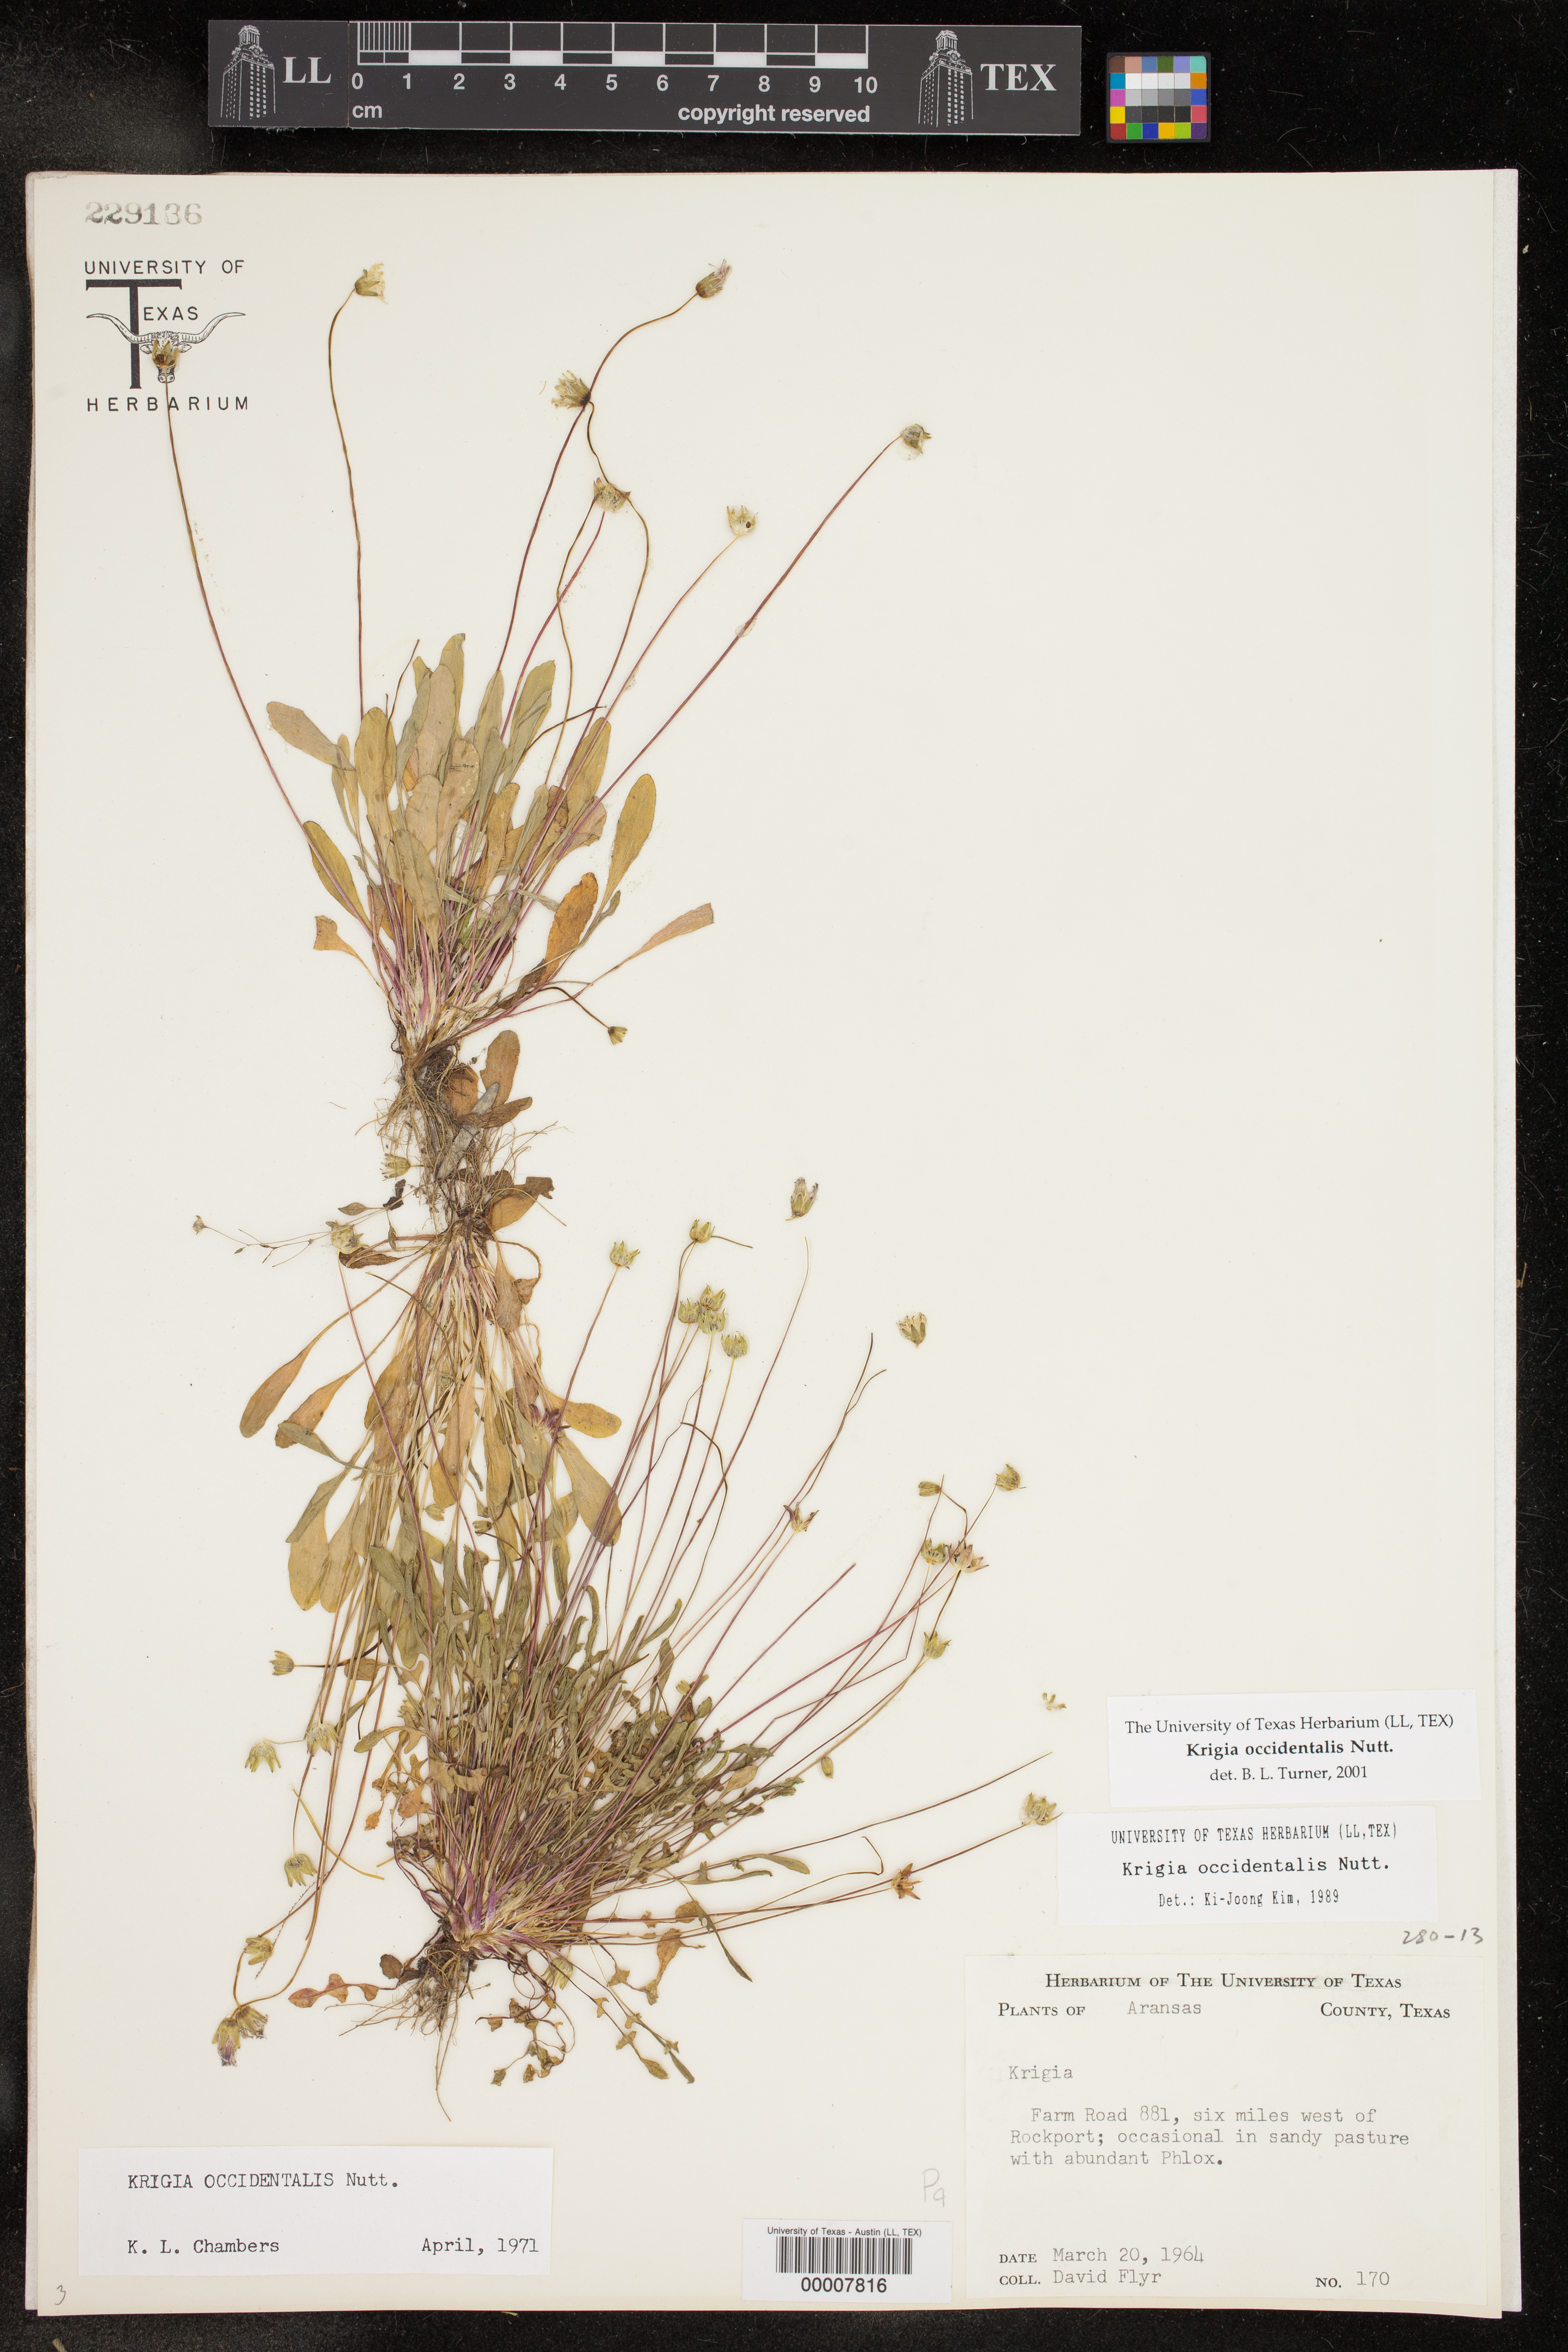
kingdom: Plantae
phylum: Tracheophyta
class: Magnoliopsida
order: Asterales
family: Asteraceae
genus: Krigia
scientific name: Krigia occidentalis
